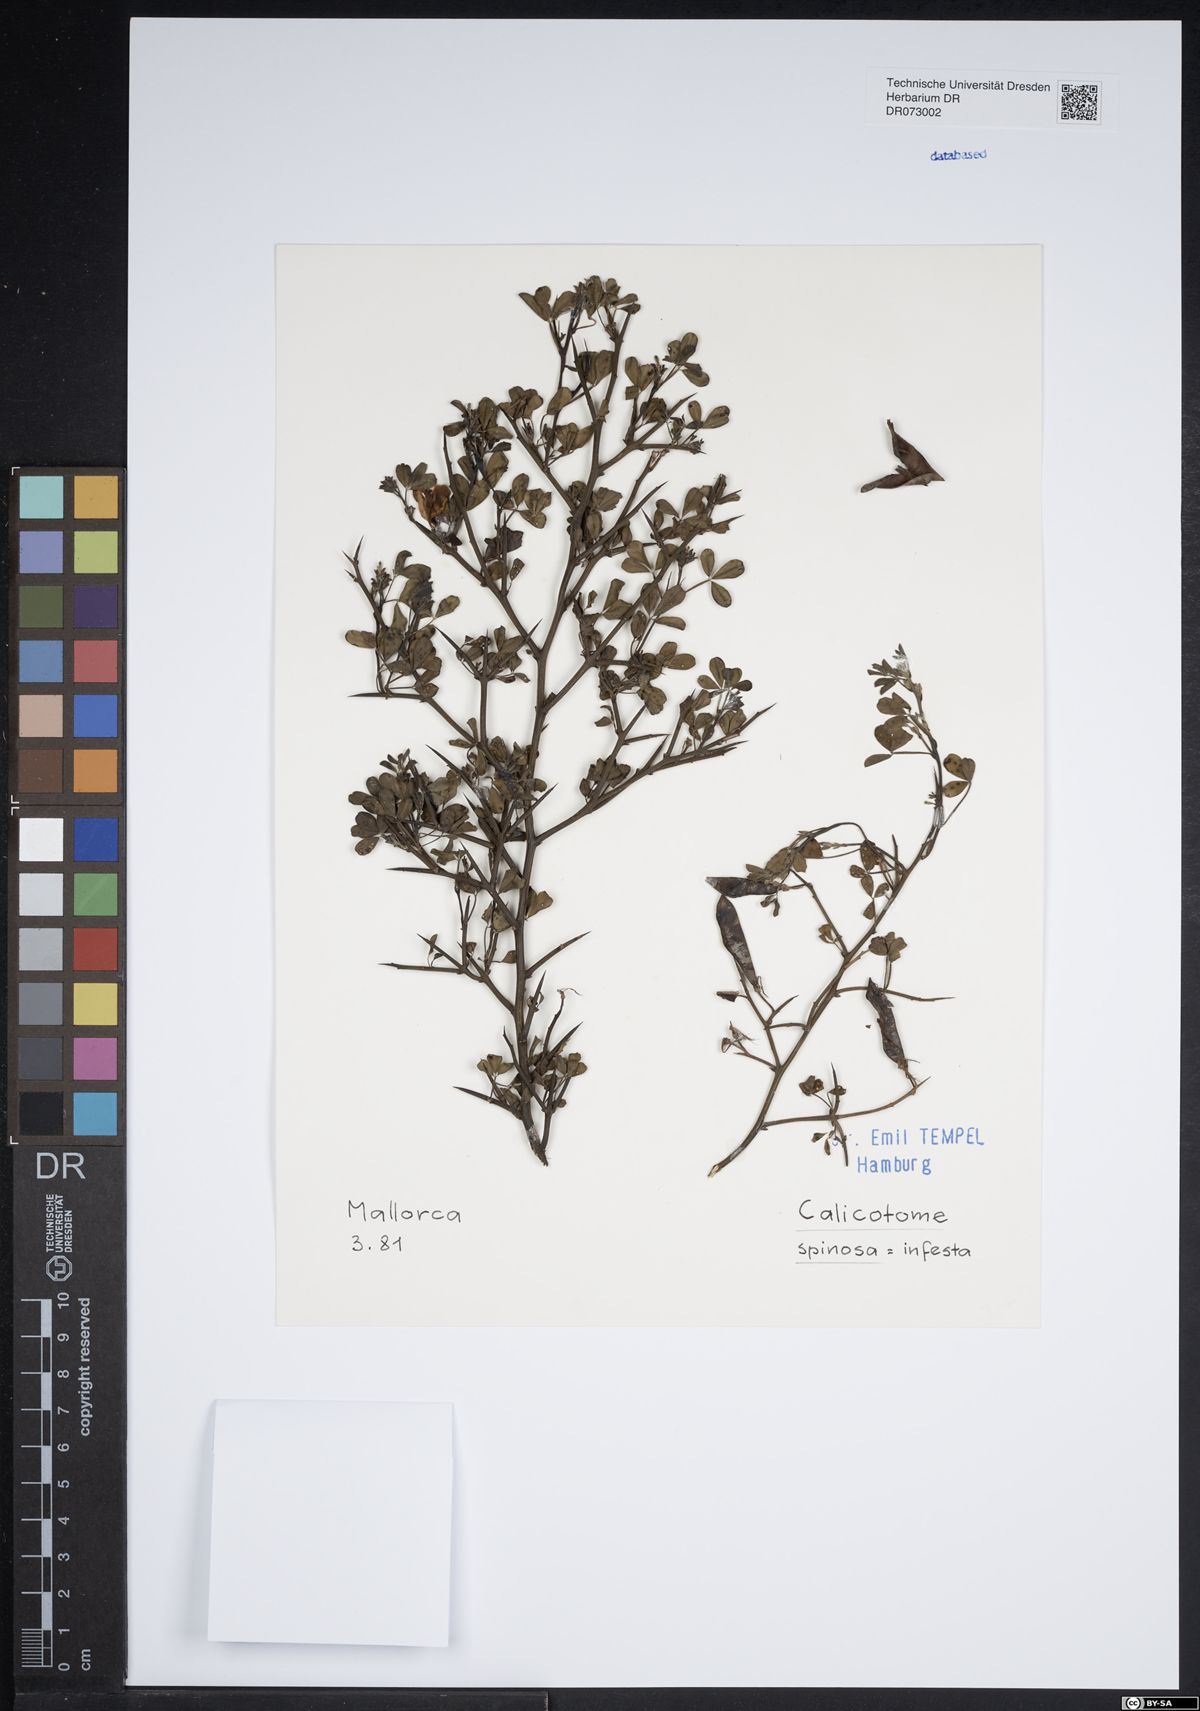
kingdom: Plantae
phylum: Tracheophyta
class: Magnoliopsida
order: Fabales
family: Fabaceae
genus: Calicotome
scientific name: Calicotome spinosa
